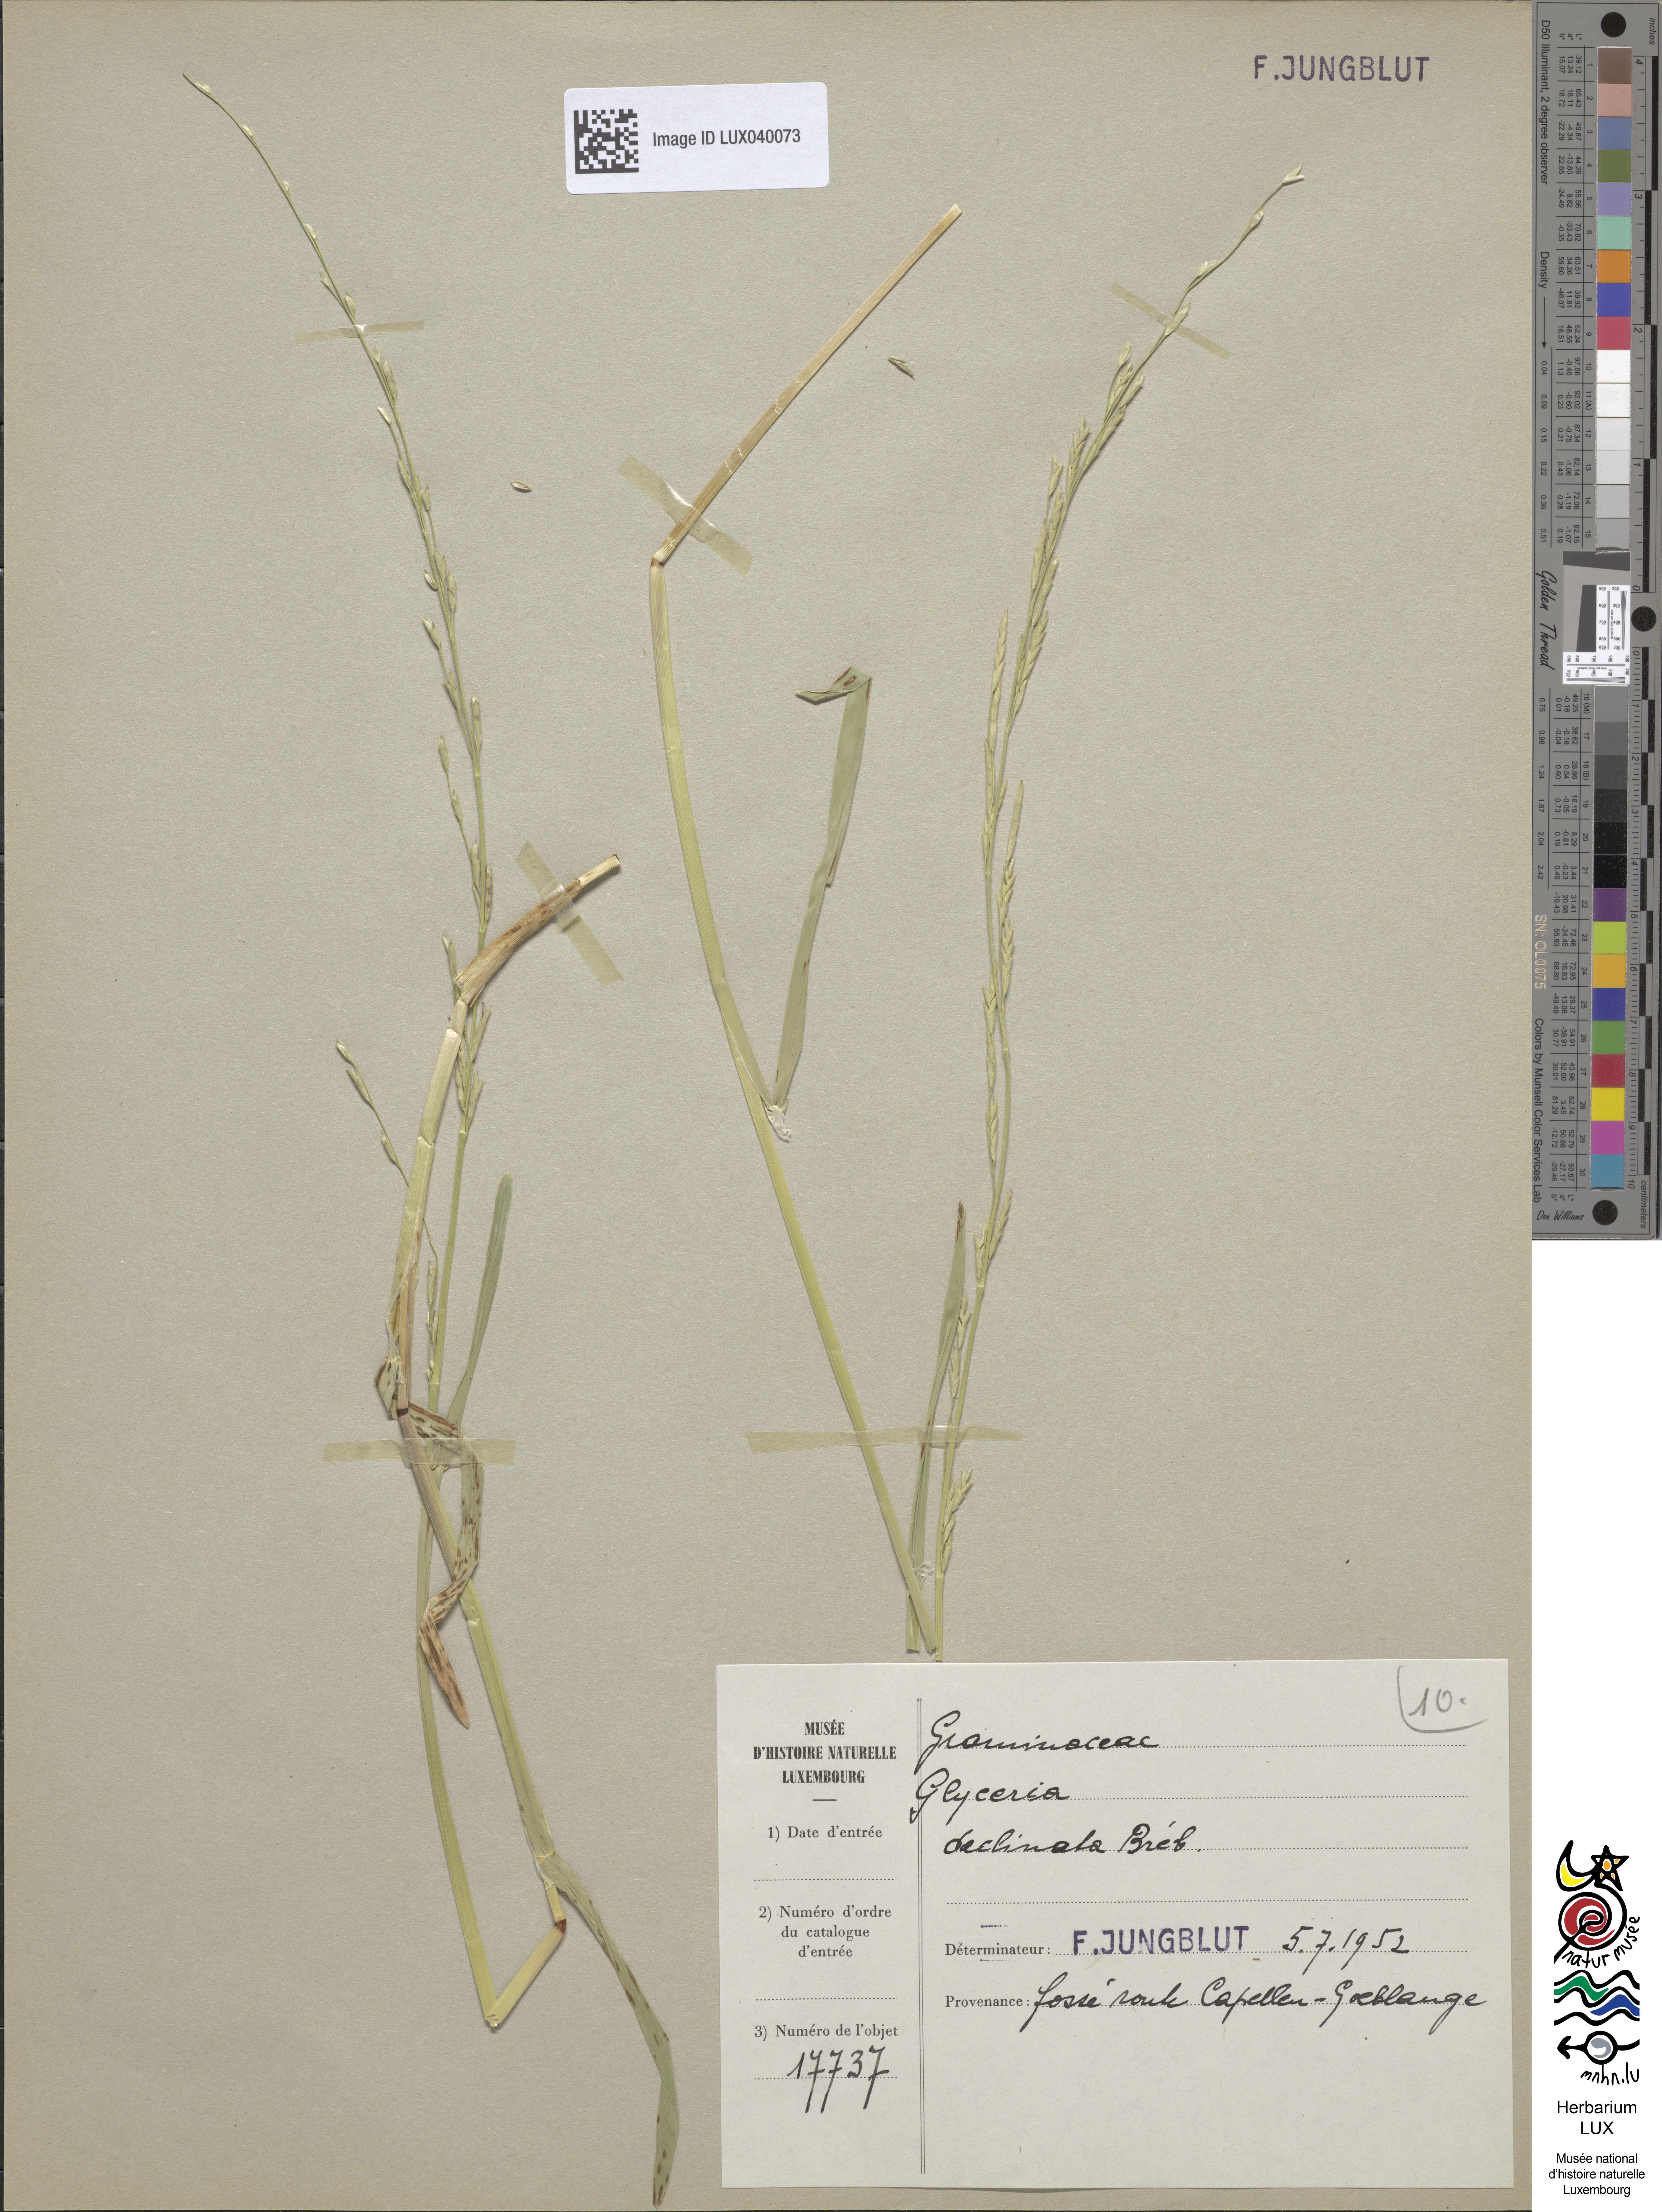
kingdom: Plantae
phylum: Tracheophyta
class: Liliopsida
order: Poales
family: Poaceae
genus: Glyceria
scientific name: Glyceria declinata
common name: Small sweet-grass
